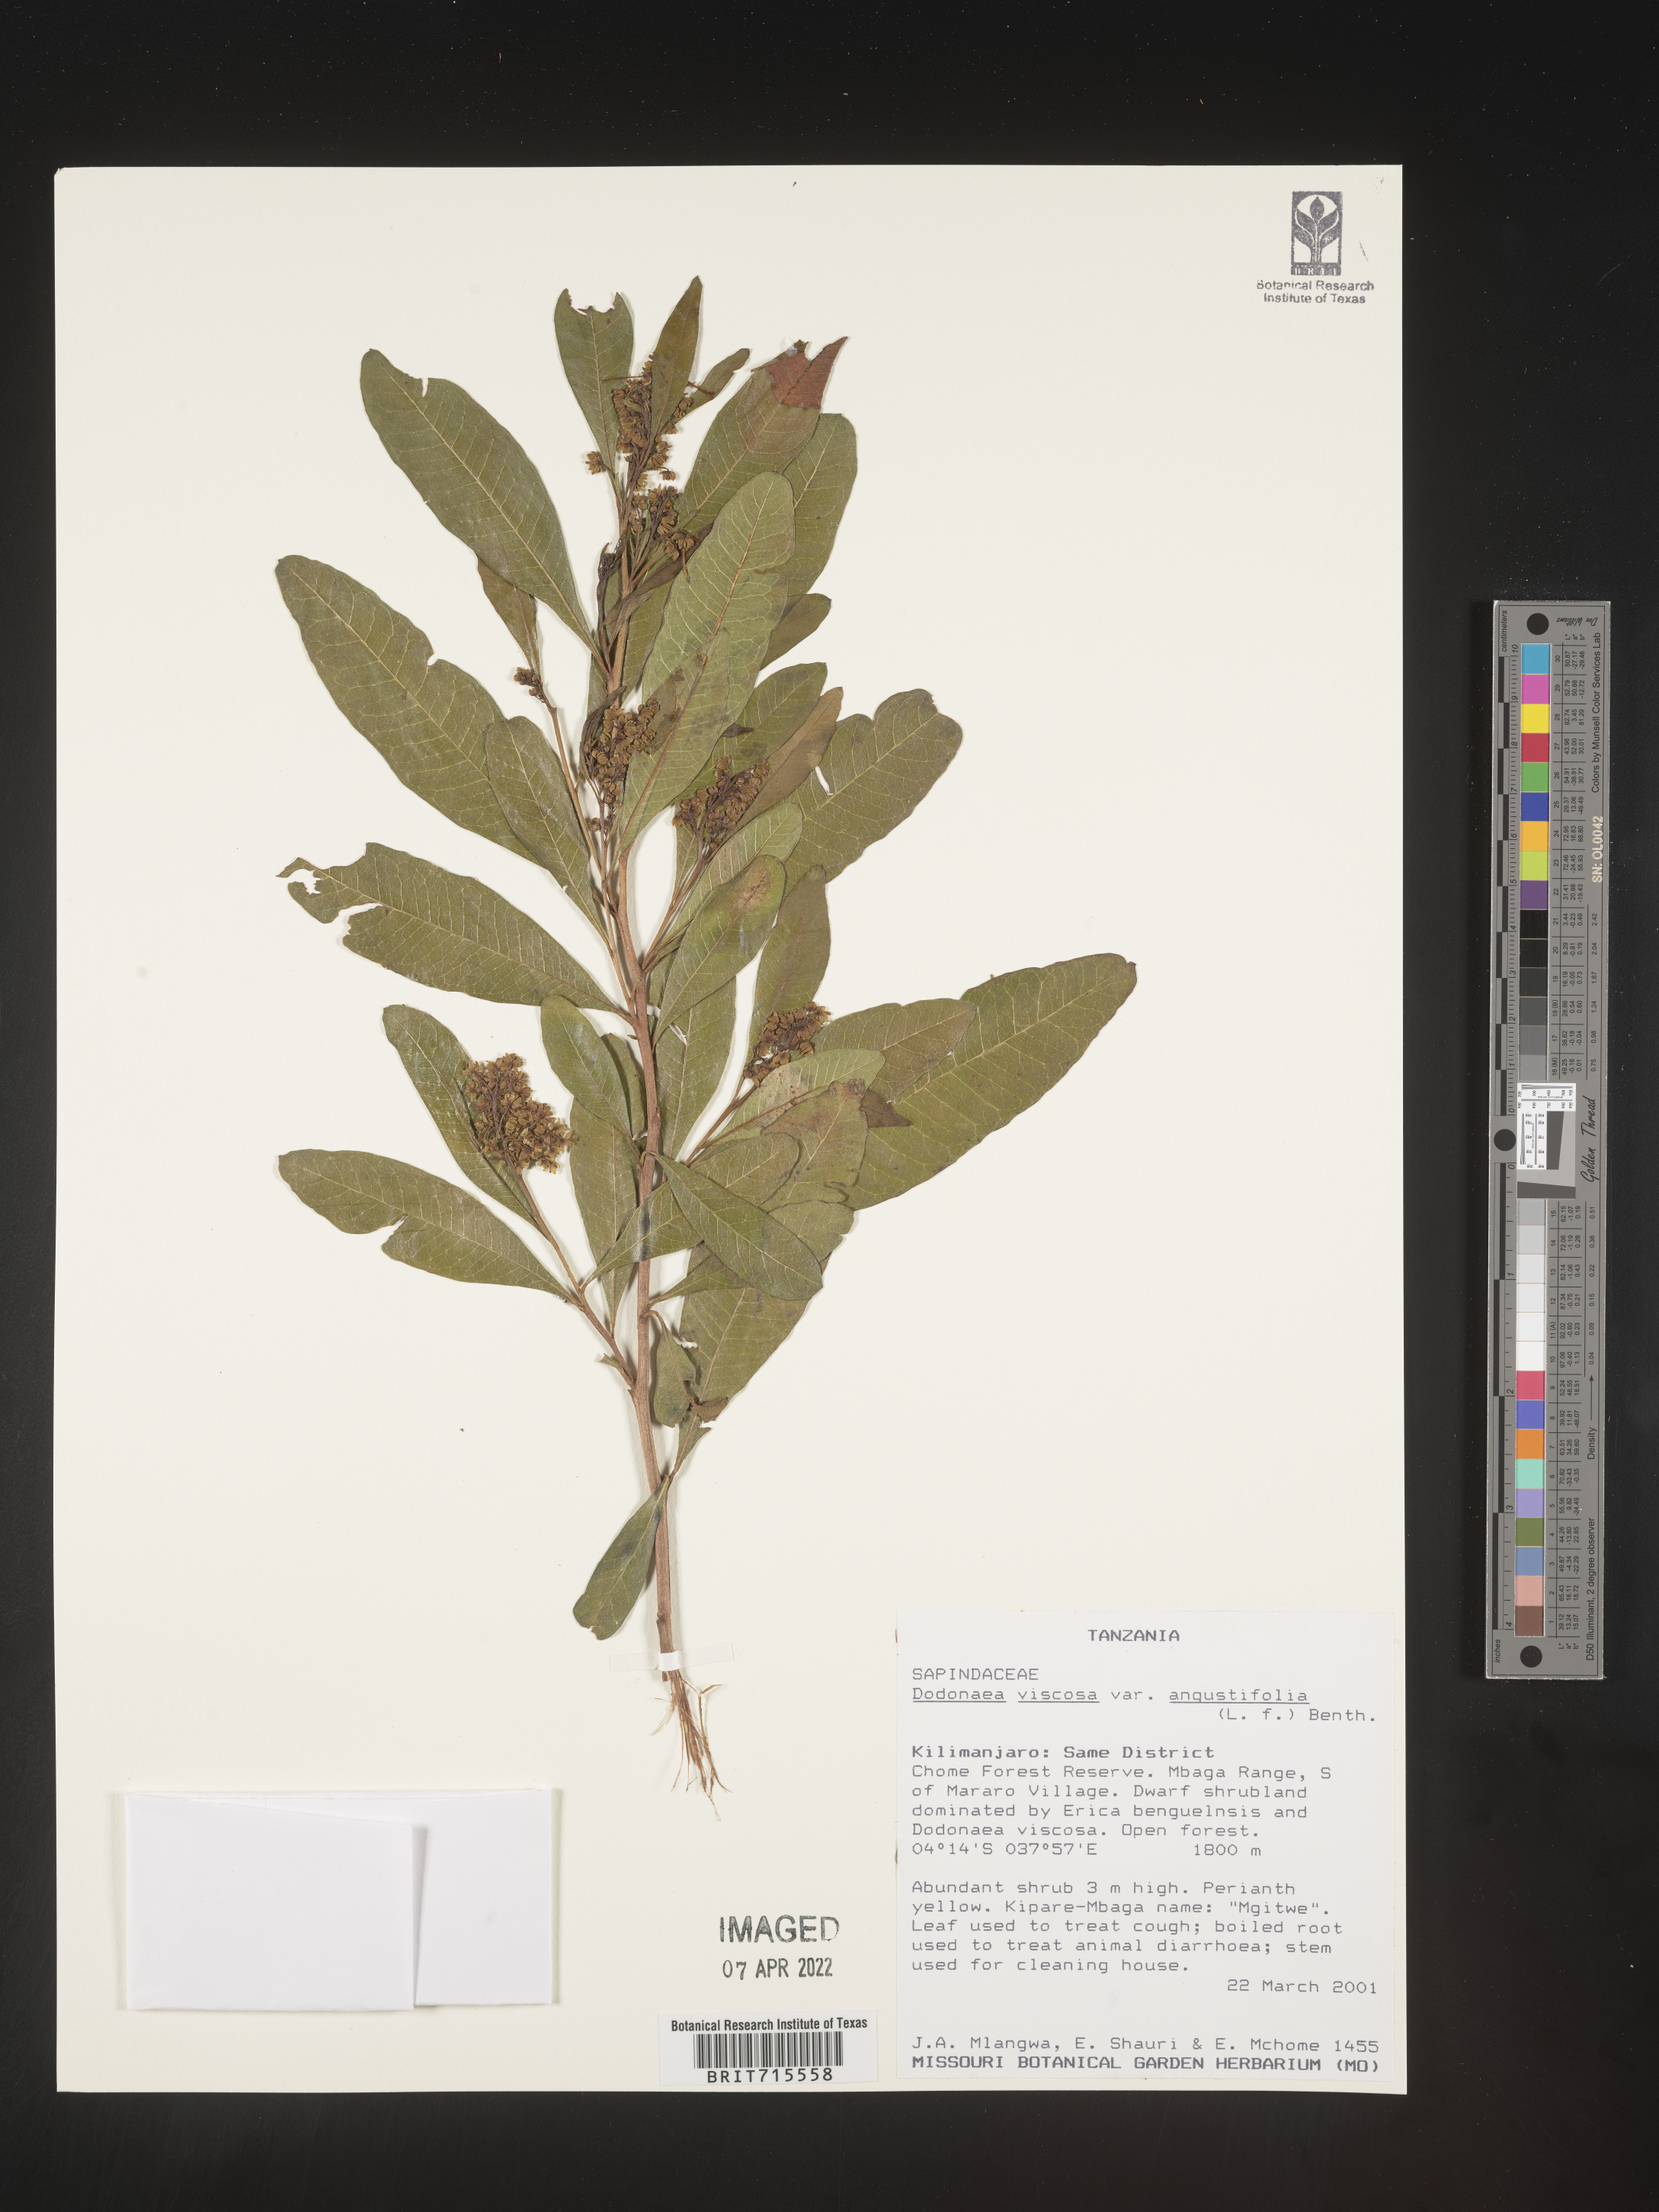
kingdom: Plantae
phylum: Tracheophyta
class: Magnoliopsida
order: Sapindales
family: Sapindaceae
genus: Dodonaea
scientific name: Dodonaea viscosa
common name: Hopbush
